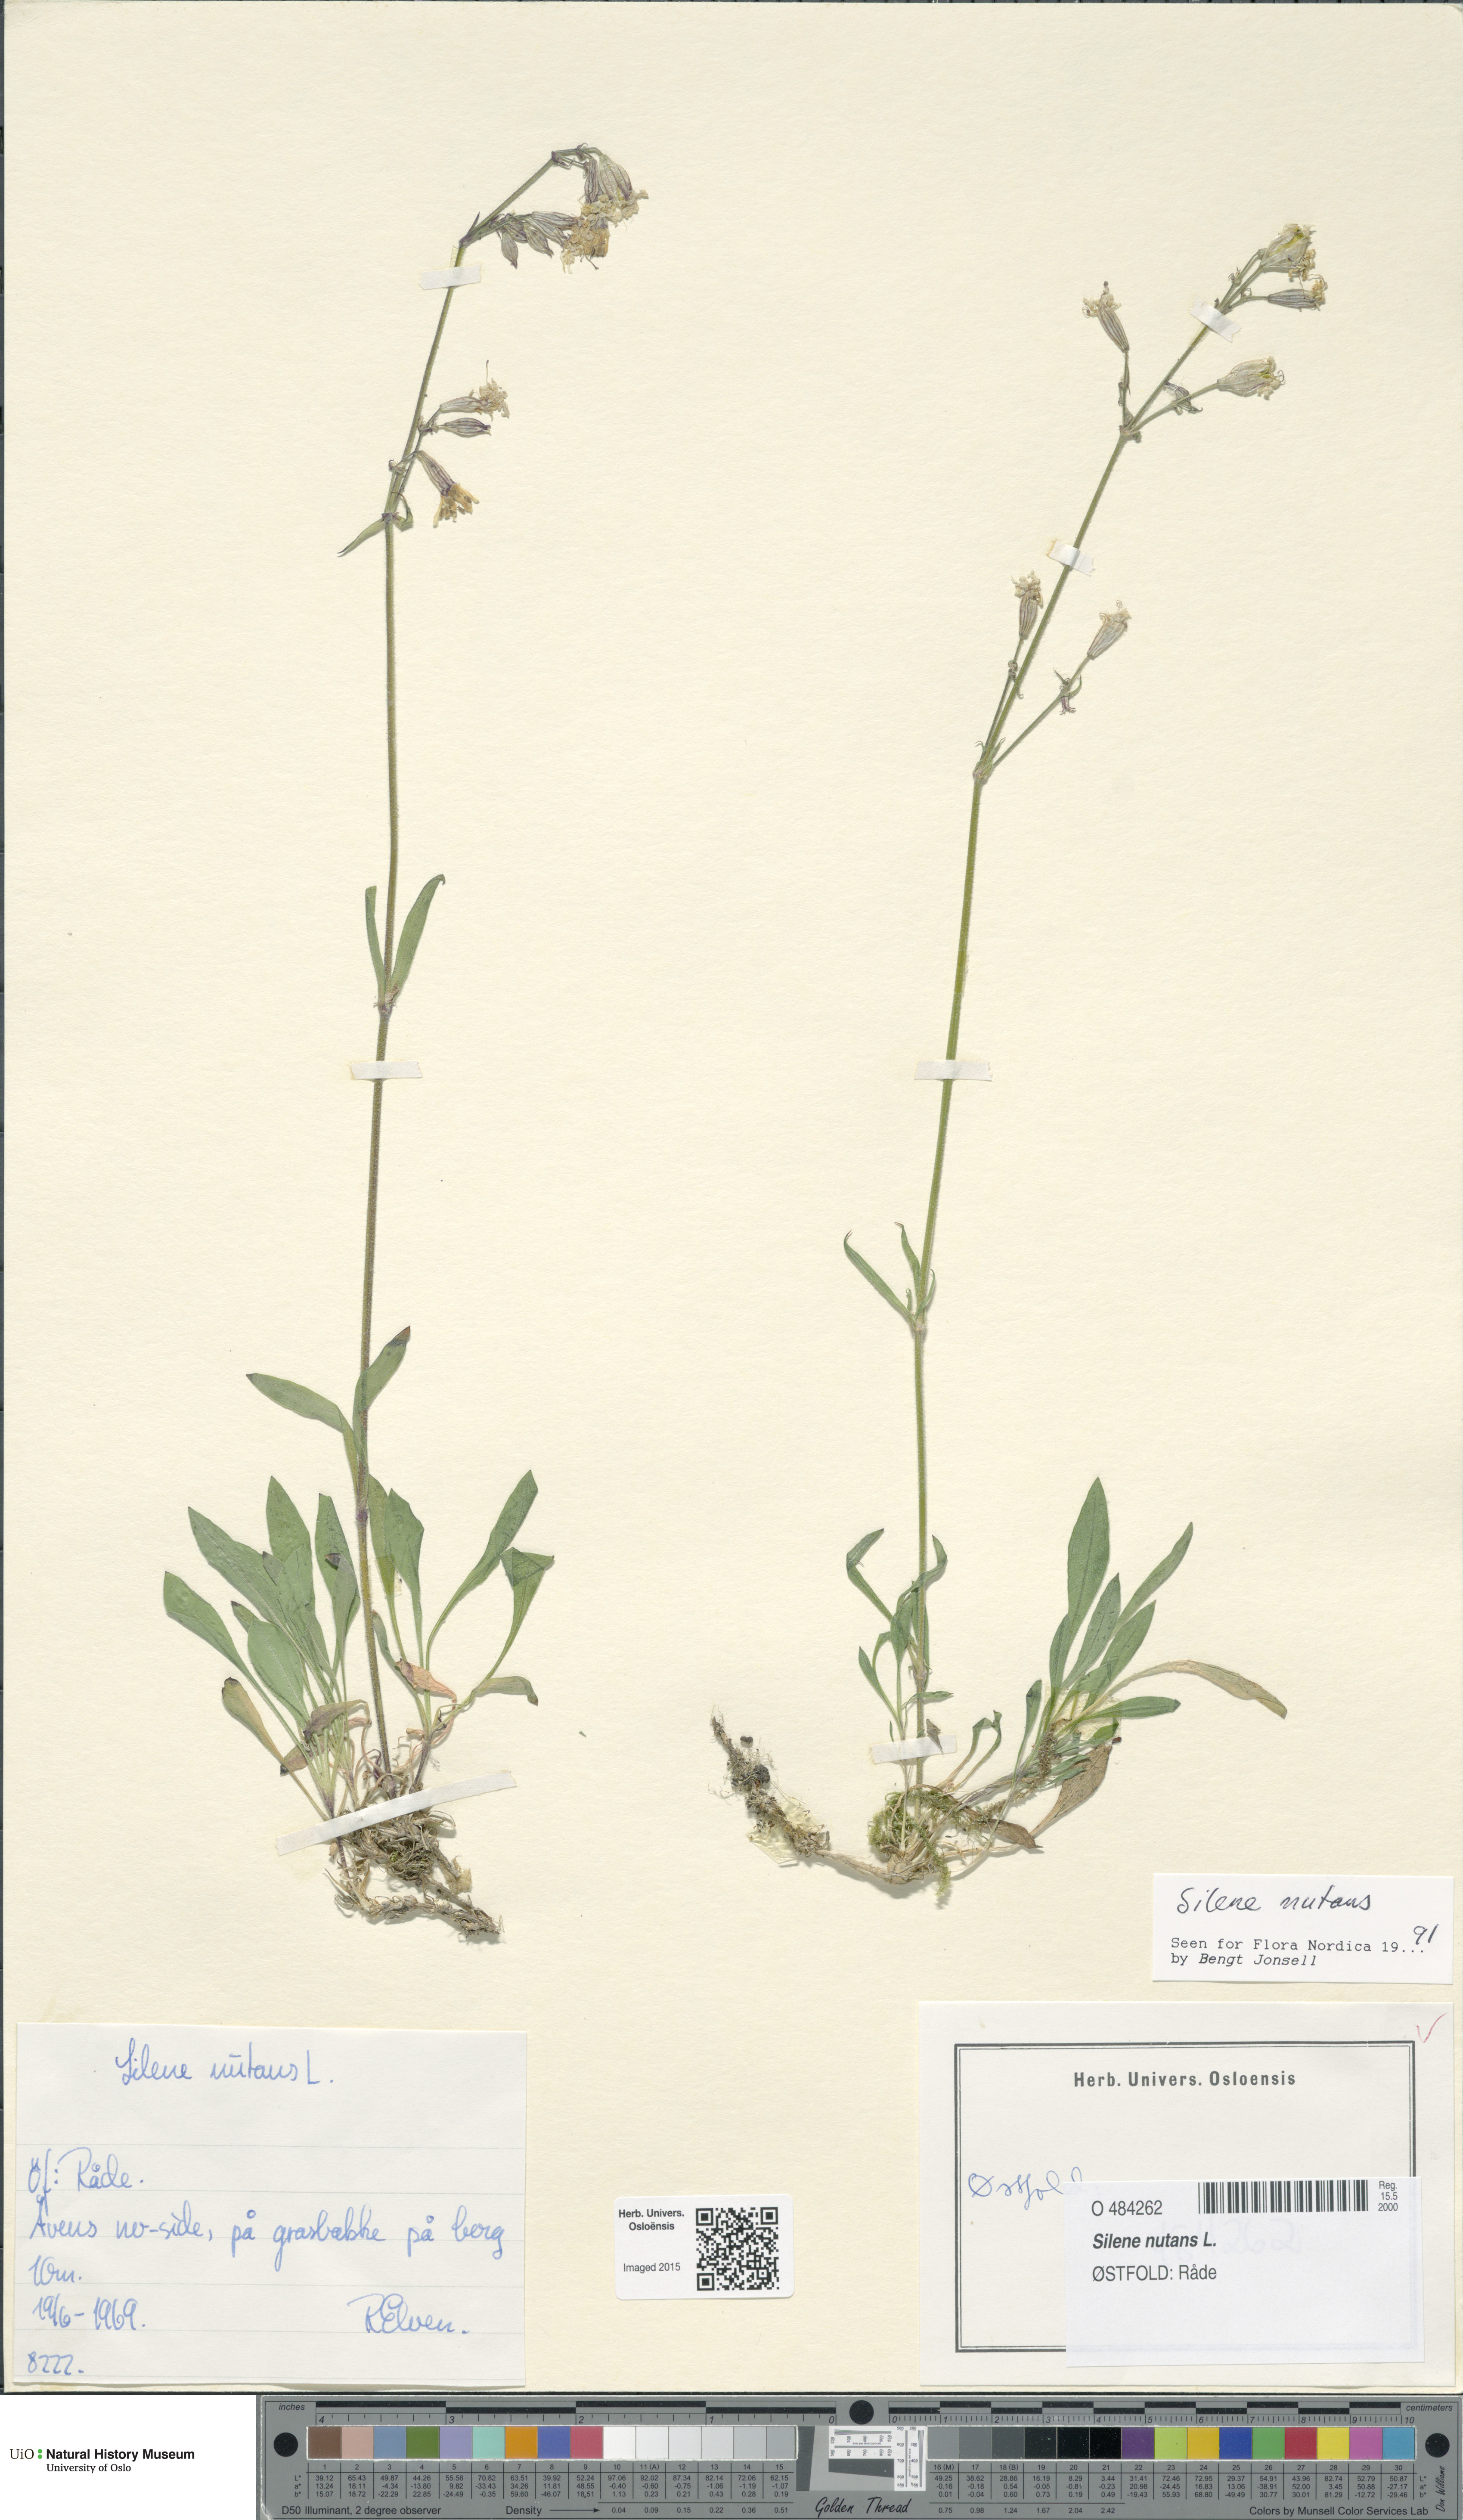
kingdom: Plantae
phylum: Tracheophyta
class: Magnoliopsida
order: Caryophyllales
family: Caryophyllaceae
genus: Silene
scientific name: Silene nutans
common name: Nottingham catchfly
